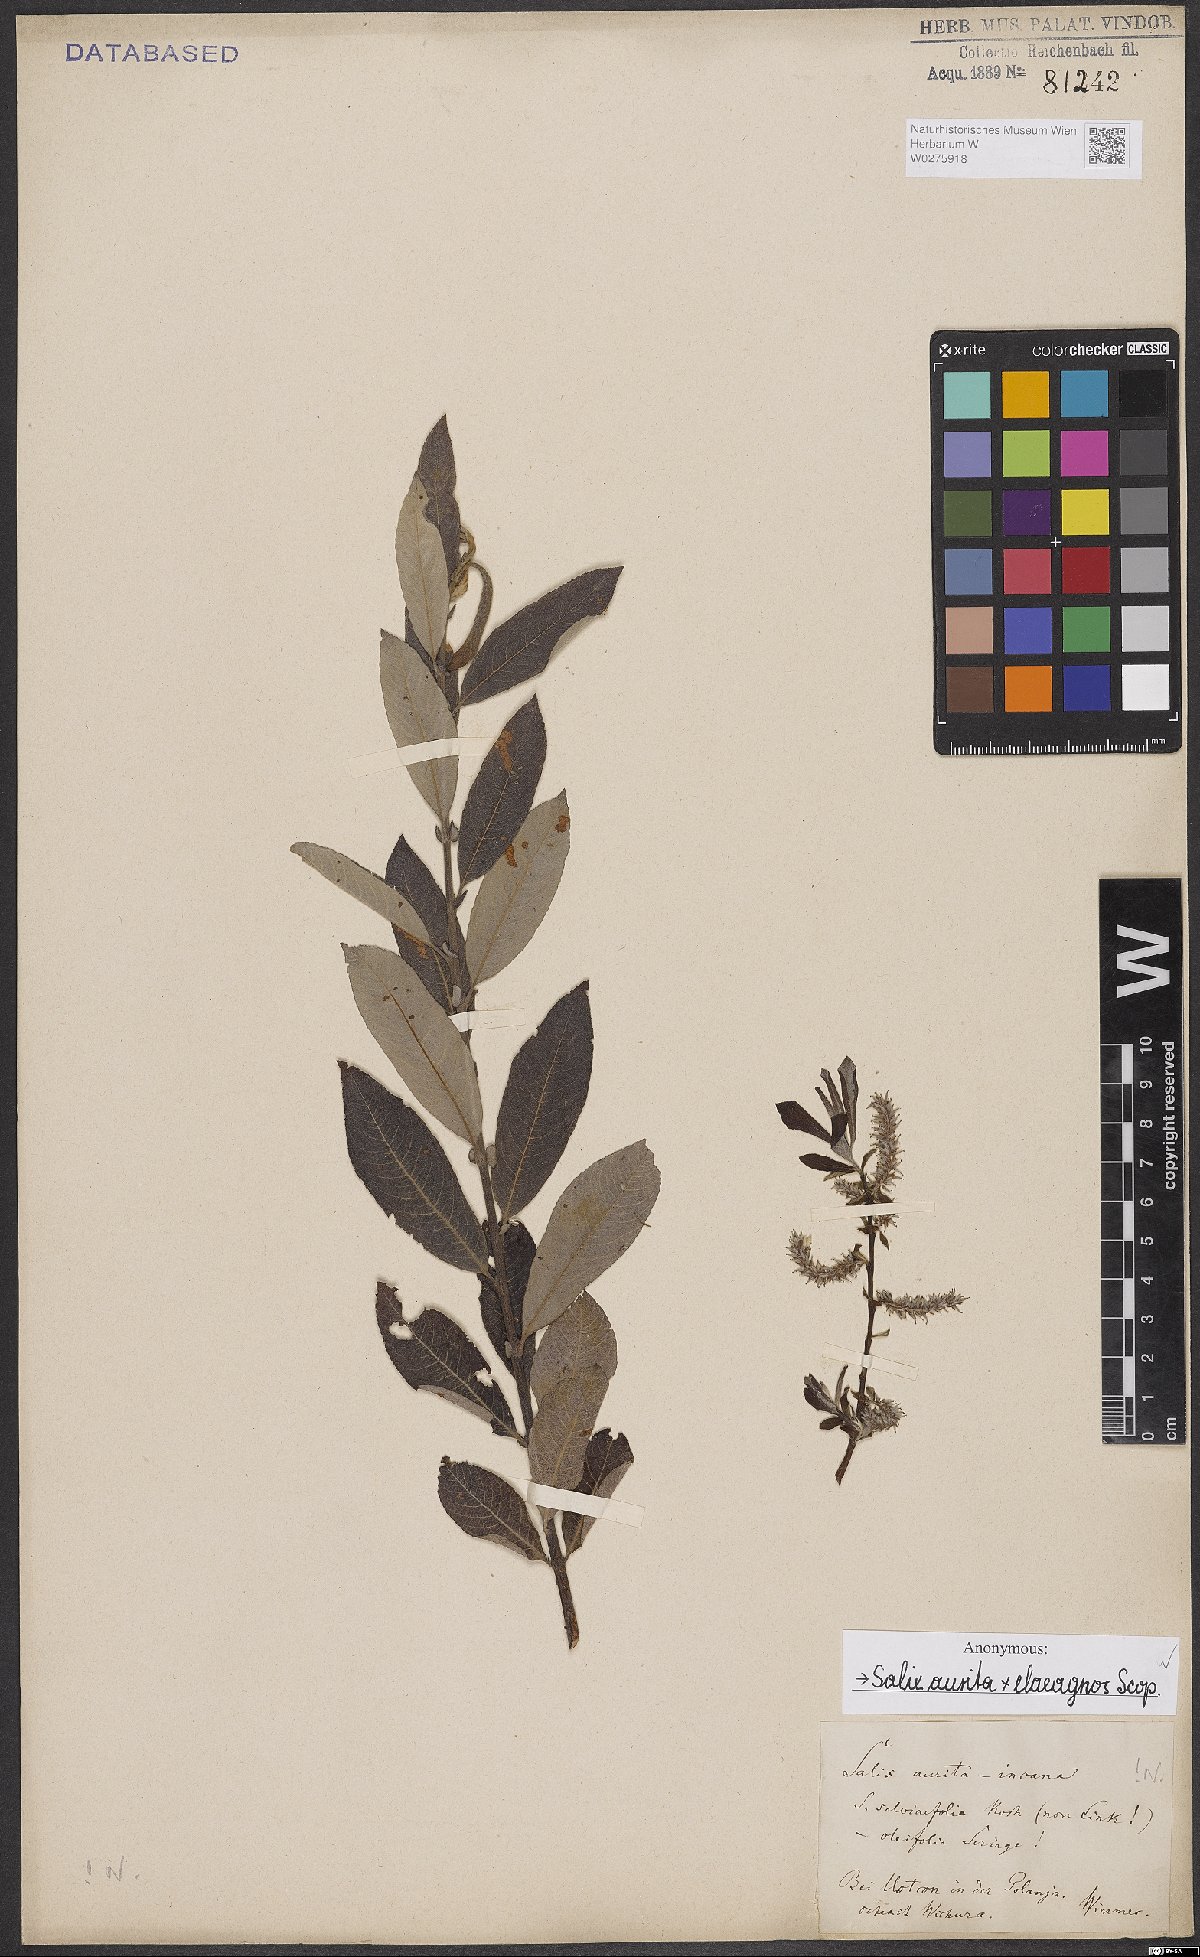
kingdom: Plantae
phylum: Tracheophyta
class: Magnoliopsida
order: Malpighiales
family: Salicaceae
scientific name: Salicaceae
